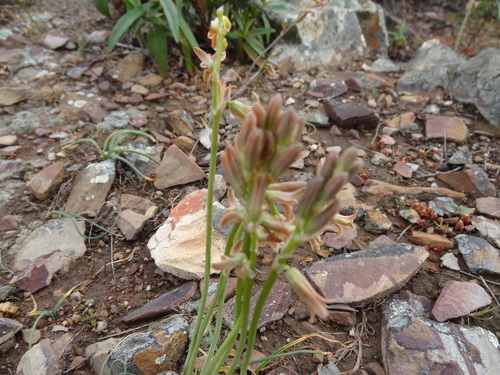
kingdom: Plantae
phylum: Tracheophyta
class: Liliopsida
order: Asparagales
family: Asparagaceae
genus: Dipcadi
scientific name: Dipcadi serotinum
